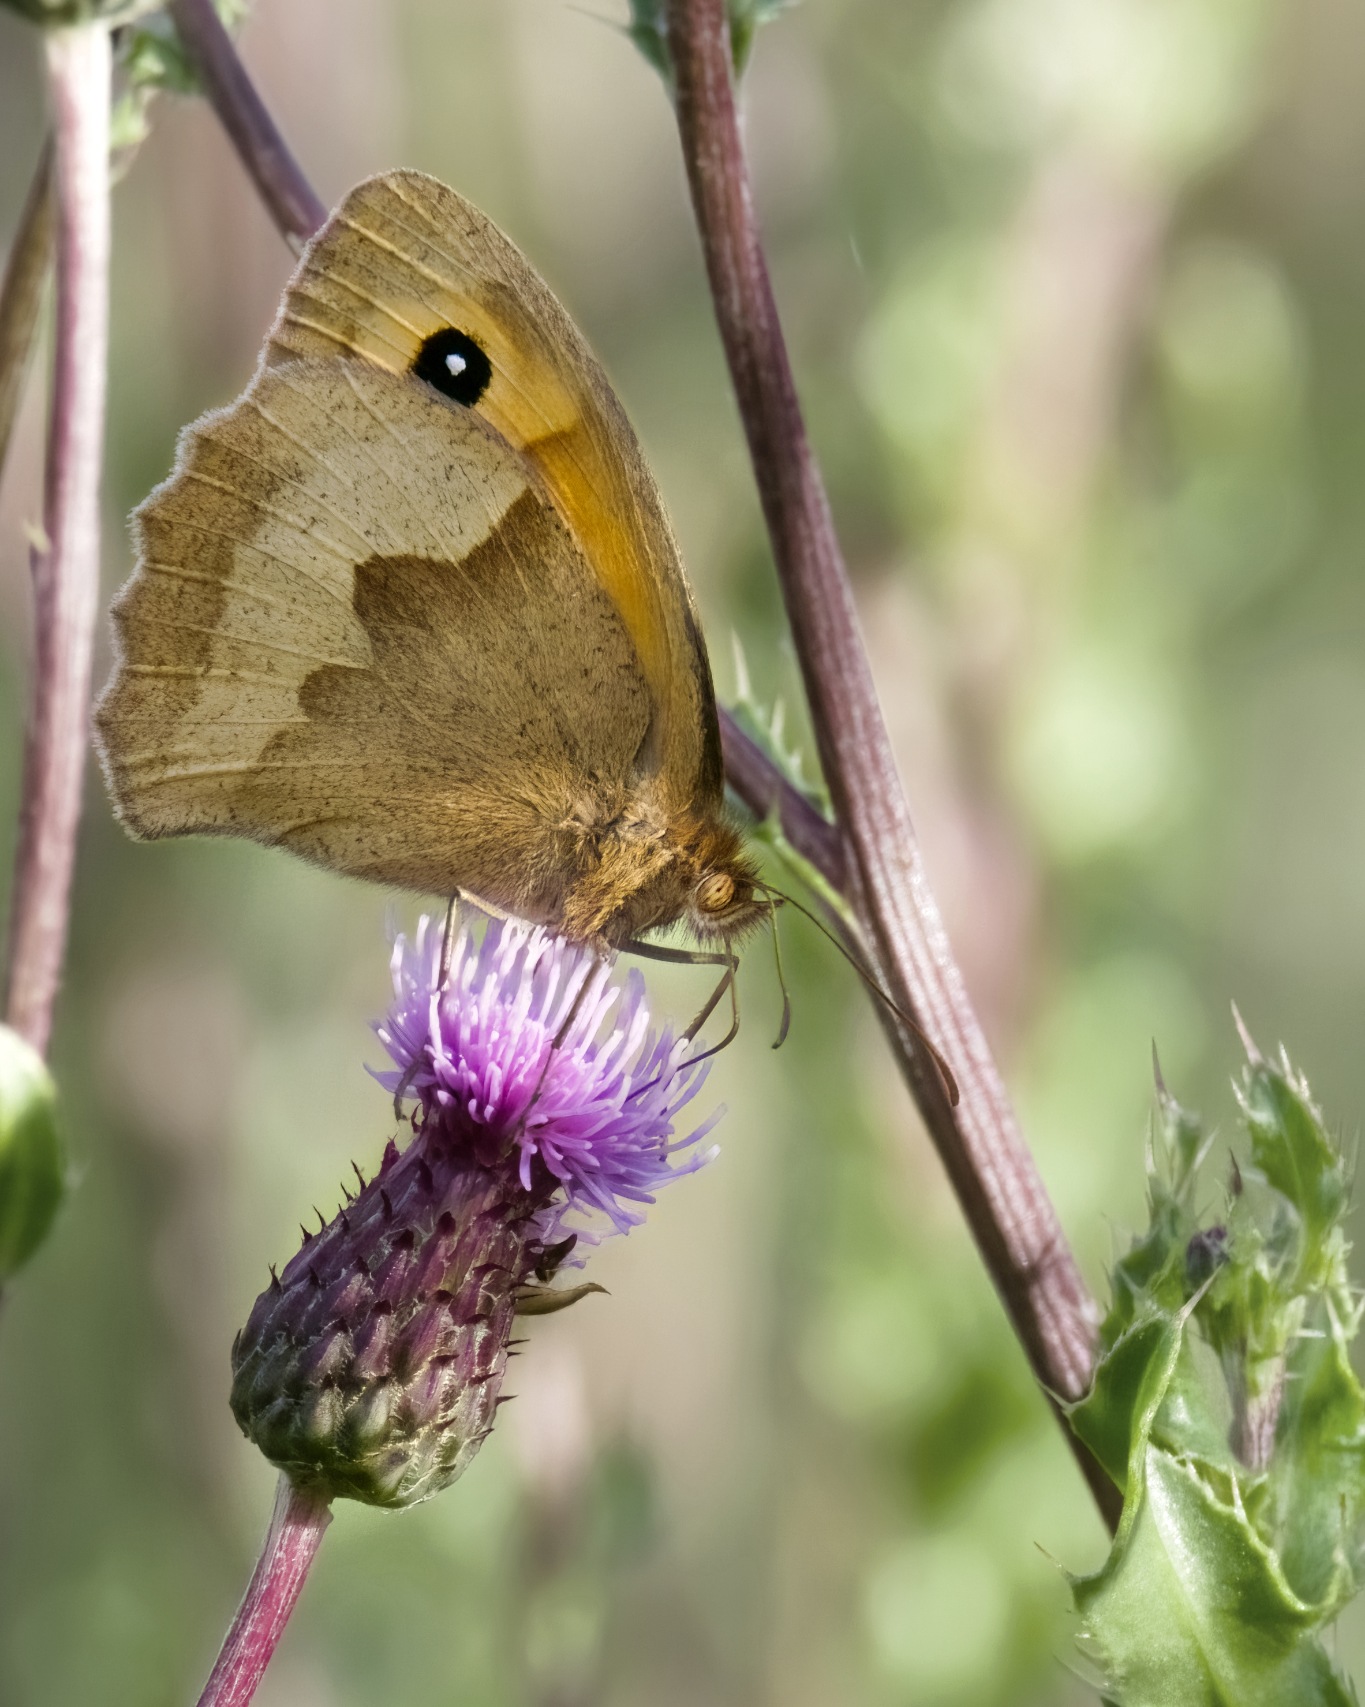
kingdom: Animalia
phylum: Arthropoda
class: Insecta
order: Lepidoptera
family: Nymphalidae
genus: Maniola
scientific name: Maniola jurtina
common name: Græsrandøje
